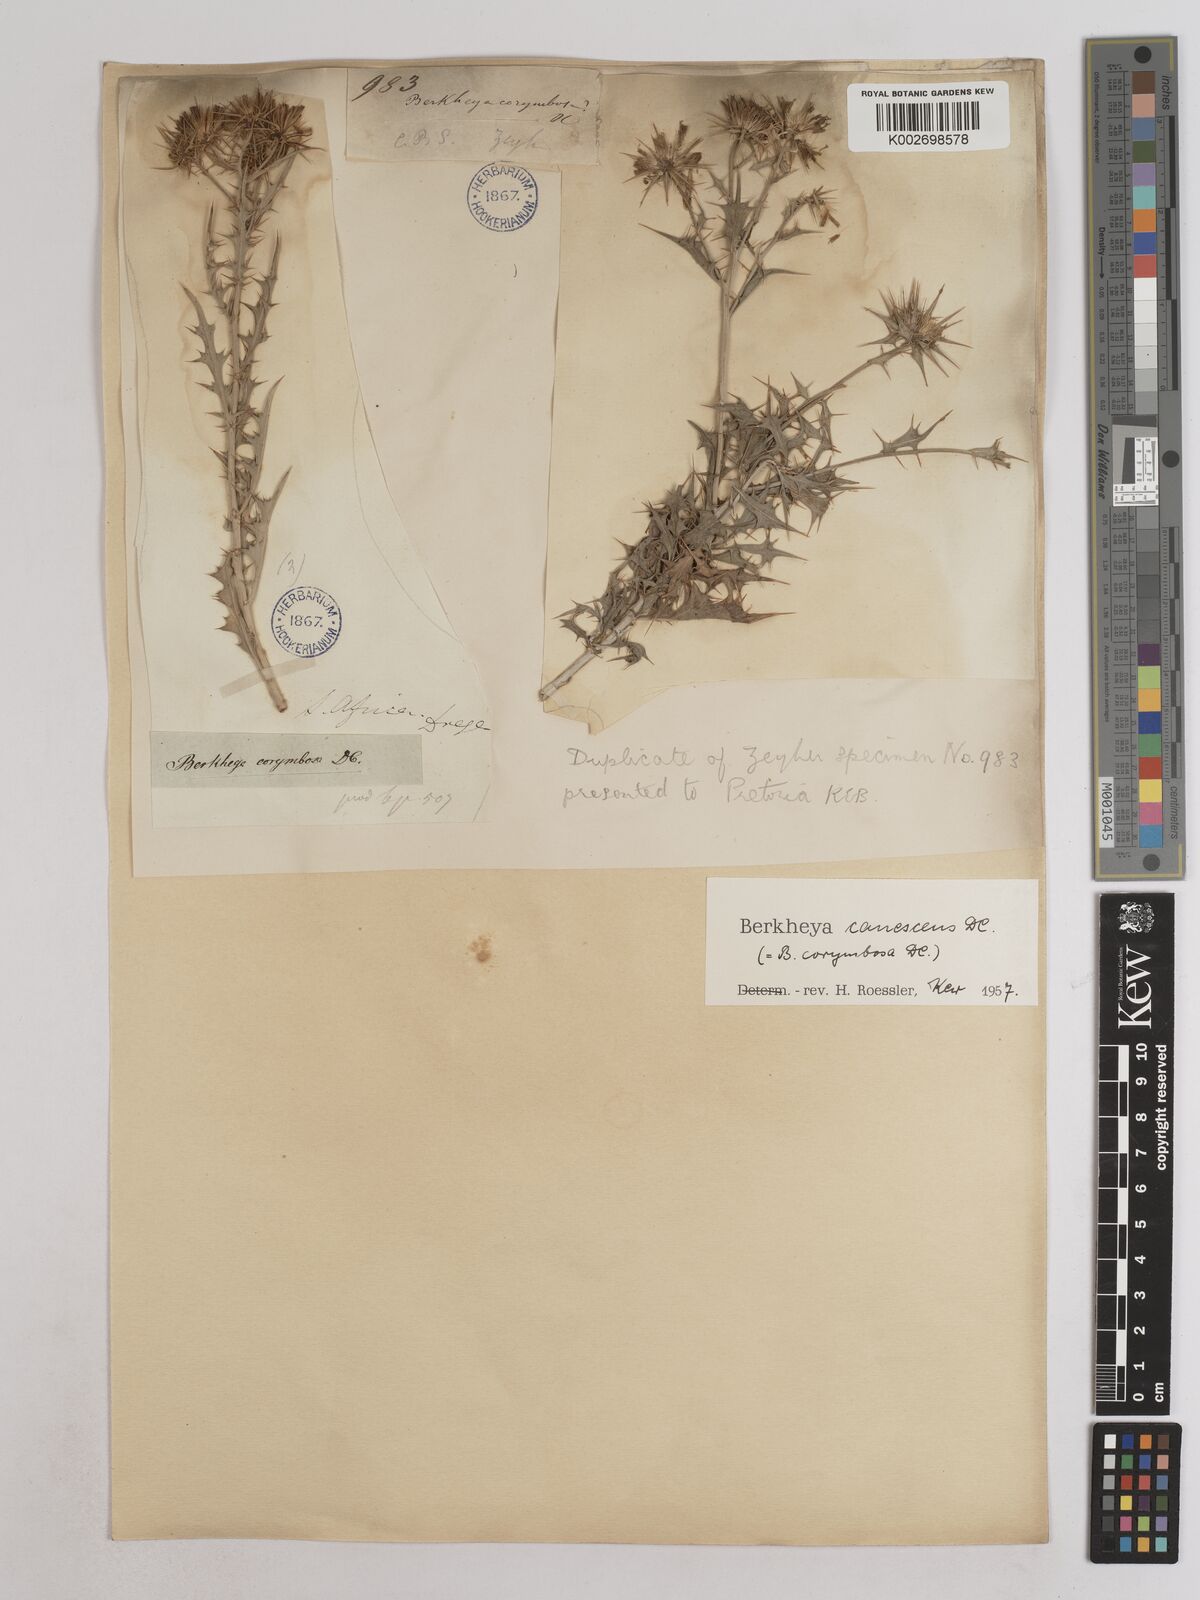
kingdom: Plantae
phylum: Tracheophyta
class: Magnoliopsida
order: Asterales
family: Asteraceae
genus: Berkheya
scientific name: Berkheya canescens
